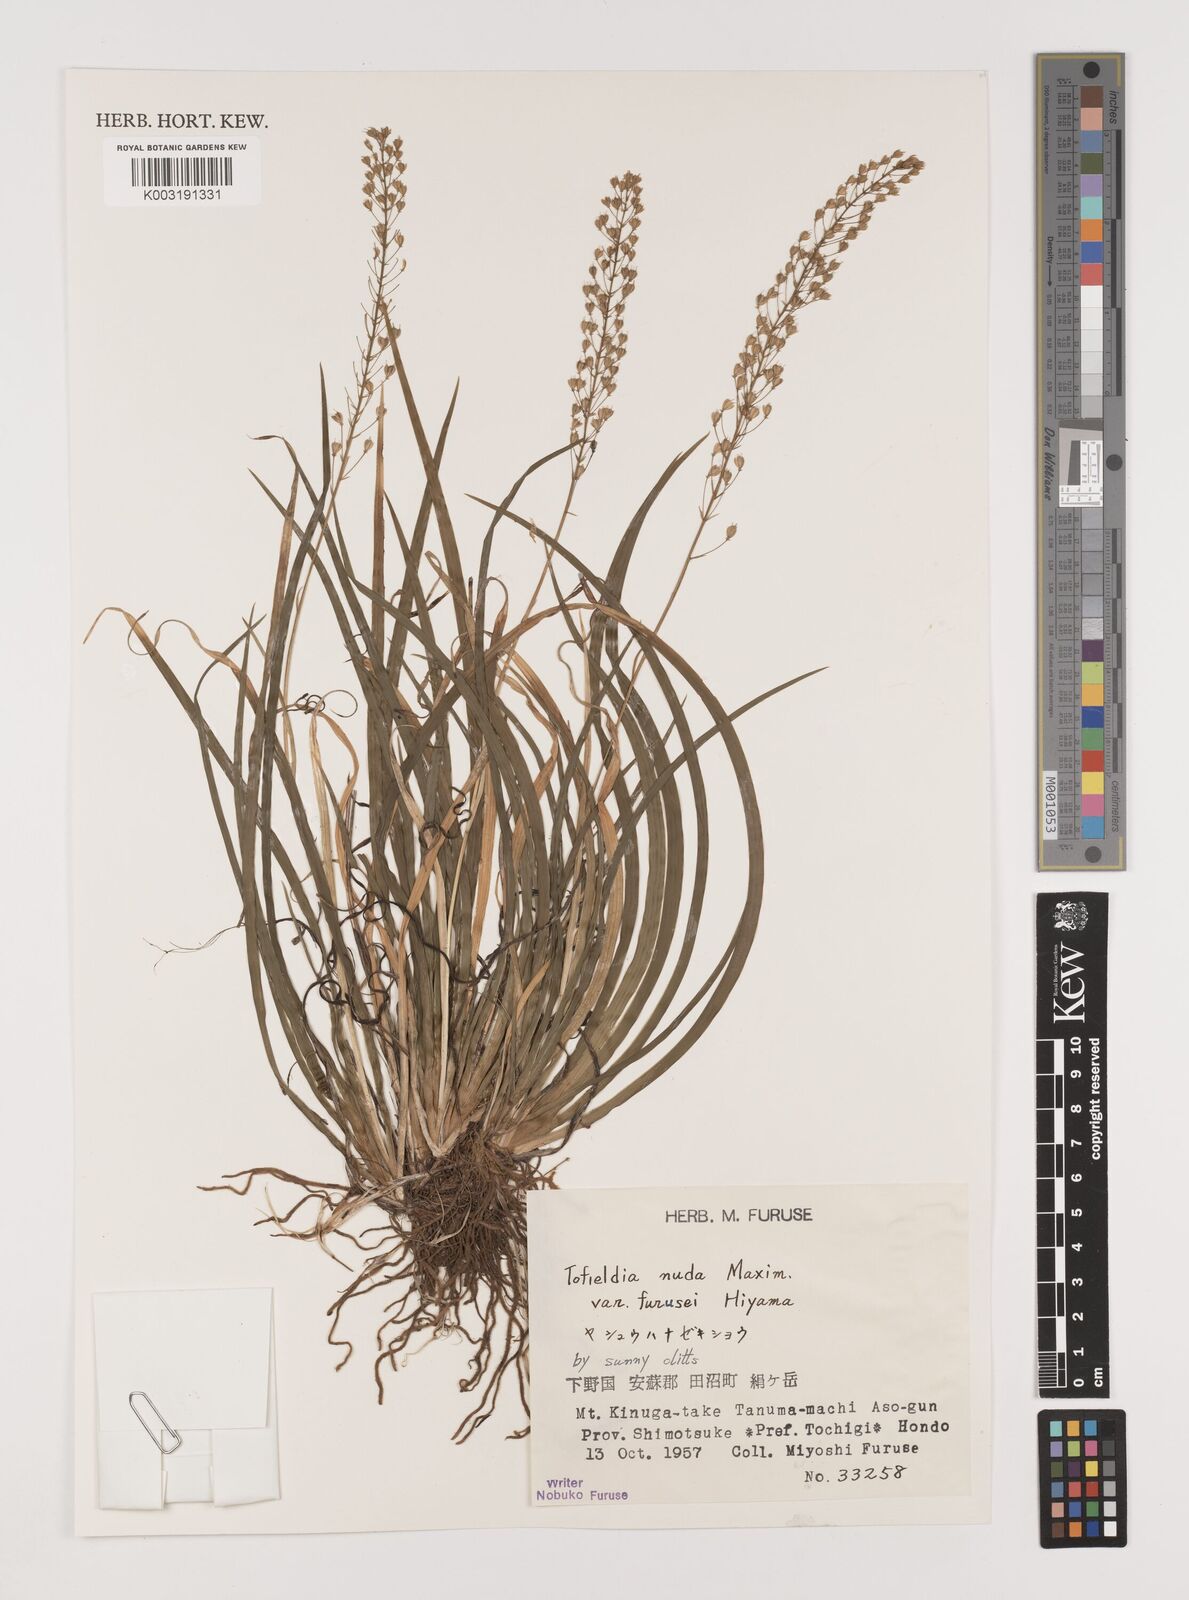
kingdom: Plantae
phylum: Tracheophyta
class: Liliopsida
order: Alismatales
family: Tofieldiaceae
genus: Tofieldia
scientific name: Tofieldia furusei
